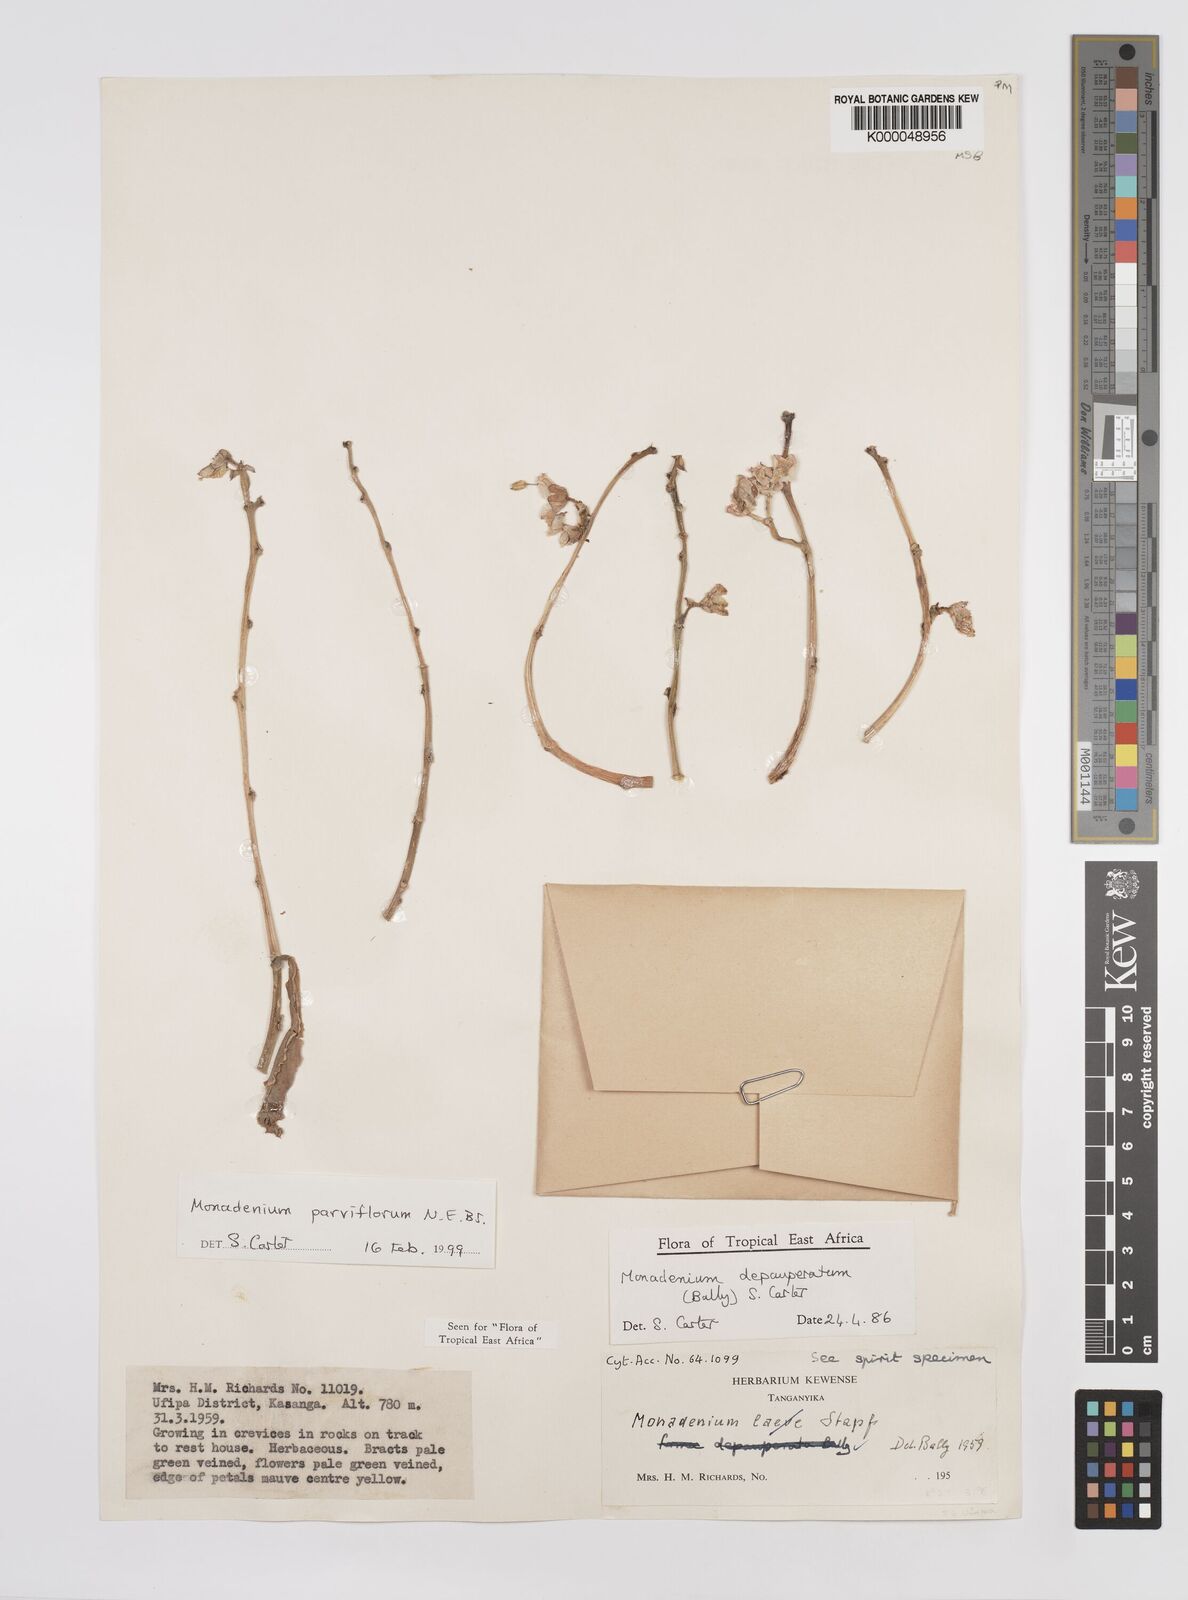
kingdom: Plantae
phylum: Tracheophyta
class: Magnoliopsida
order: Malpighiales
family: Euphorbiaceae
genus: Euphorbia
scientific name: Euphorbia neoparviflora
